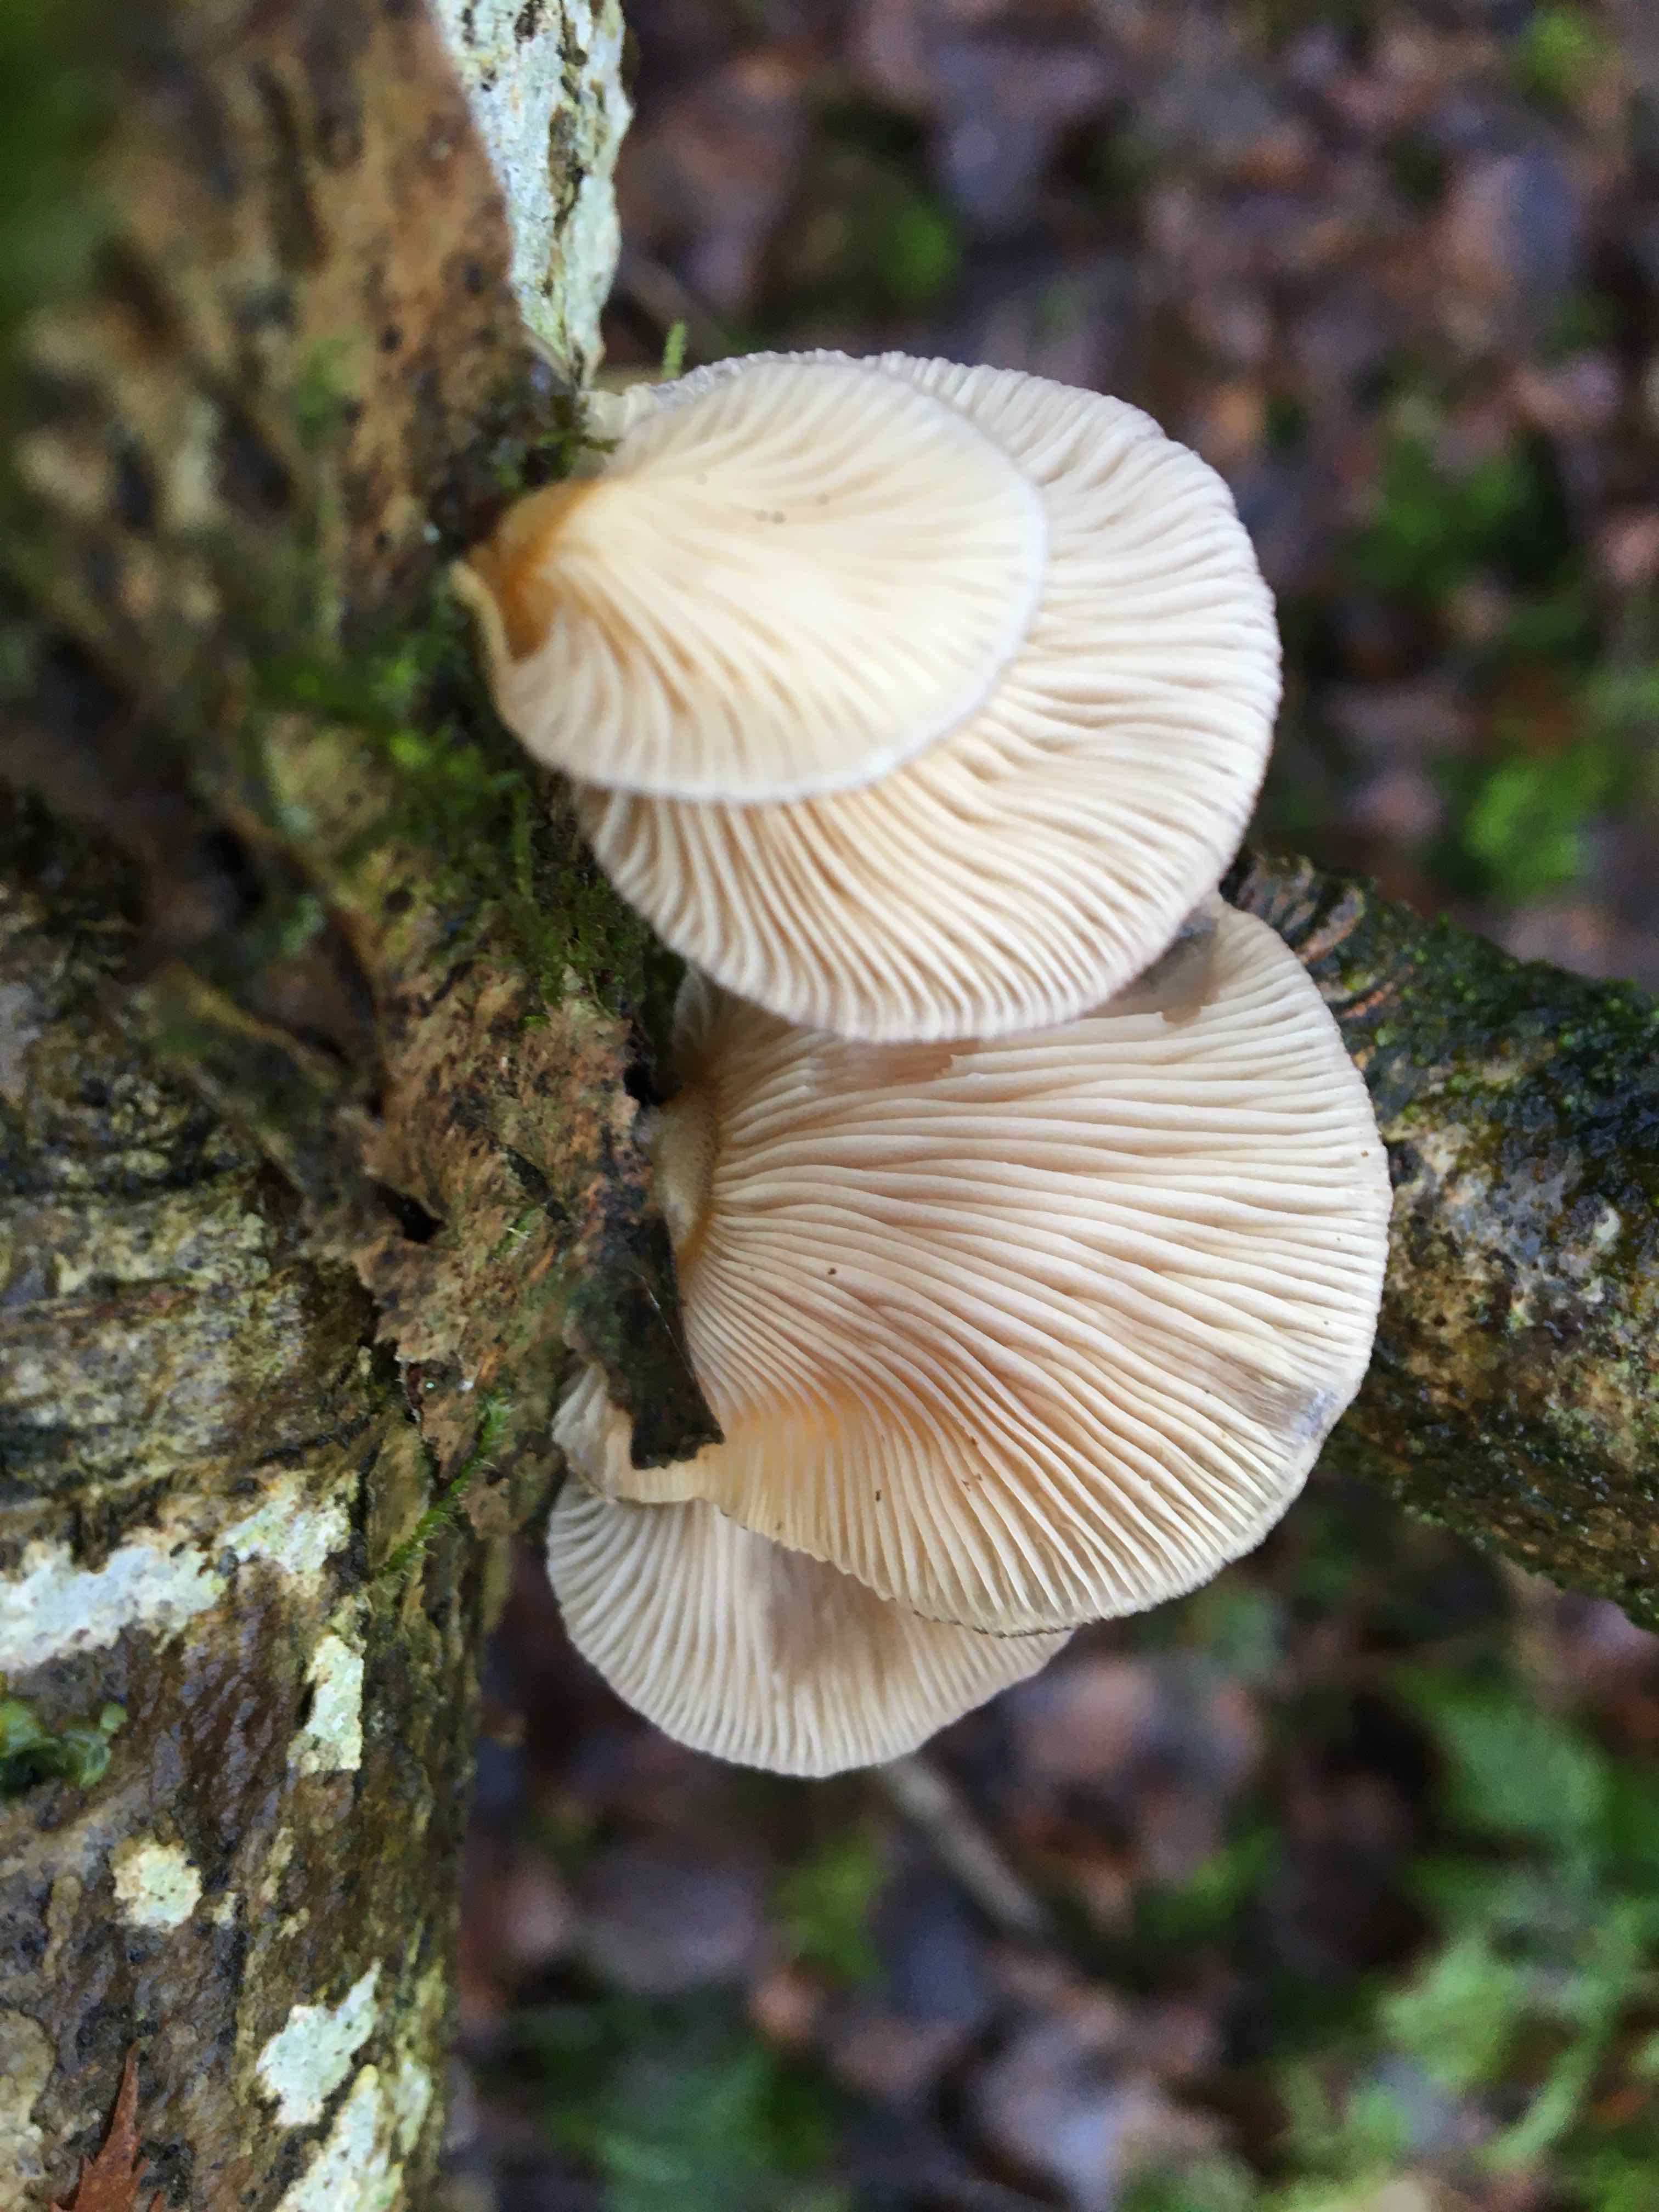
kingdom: Fungi
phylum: Basidiomycota
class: Agaricomycetes
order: Agaricales
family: Sarcomyxaceae
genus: Sarcomyxa
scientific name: Sarcomyxa serotina
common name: gummihat
